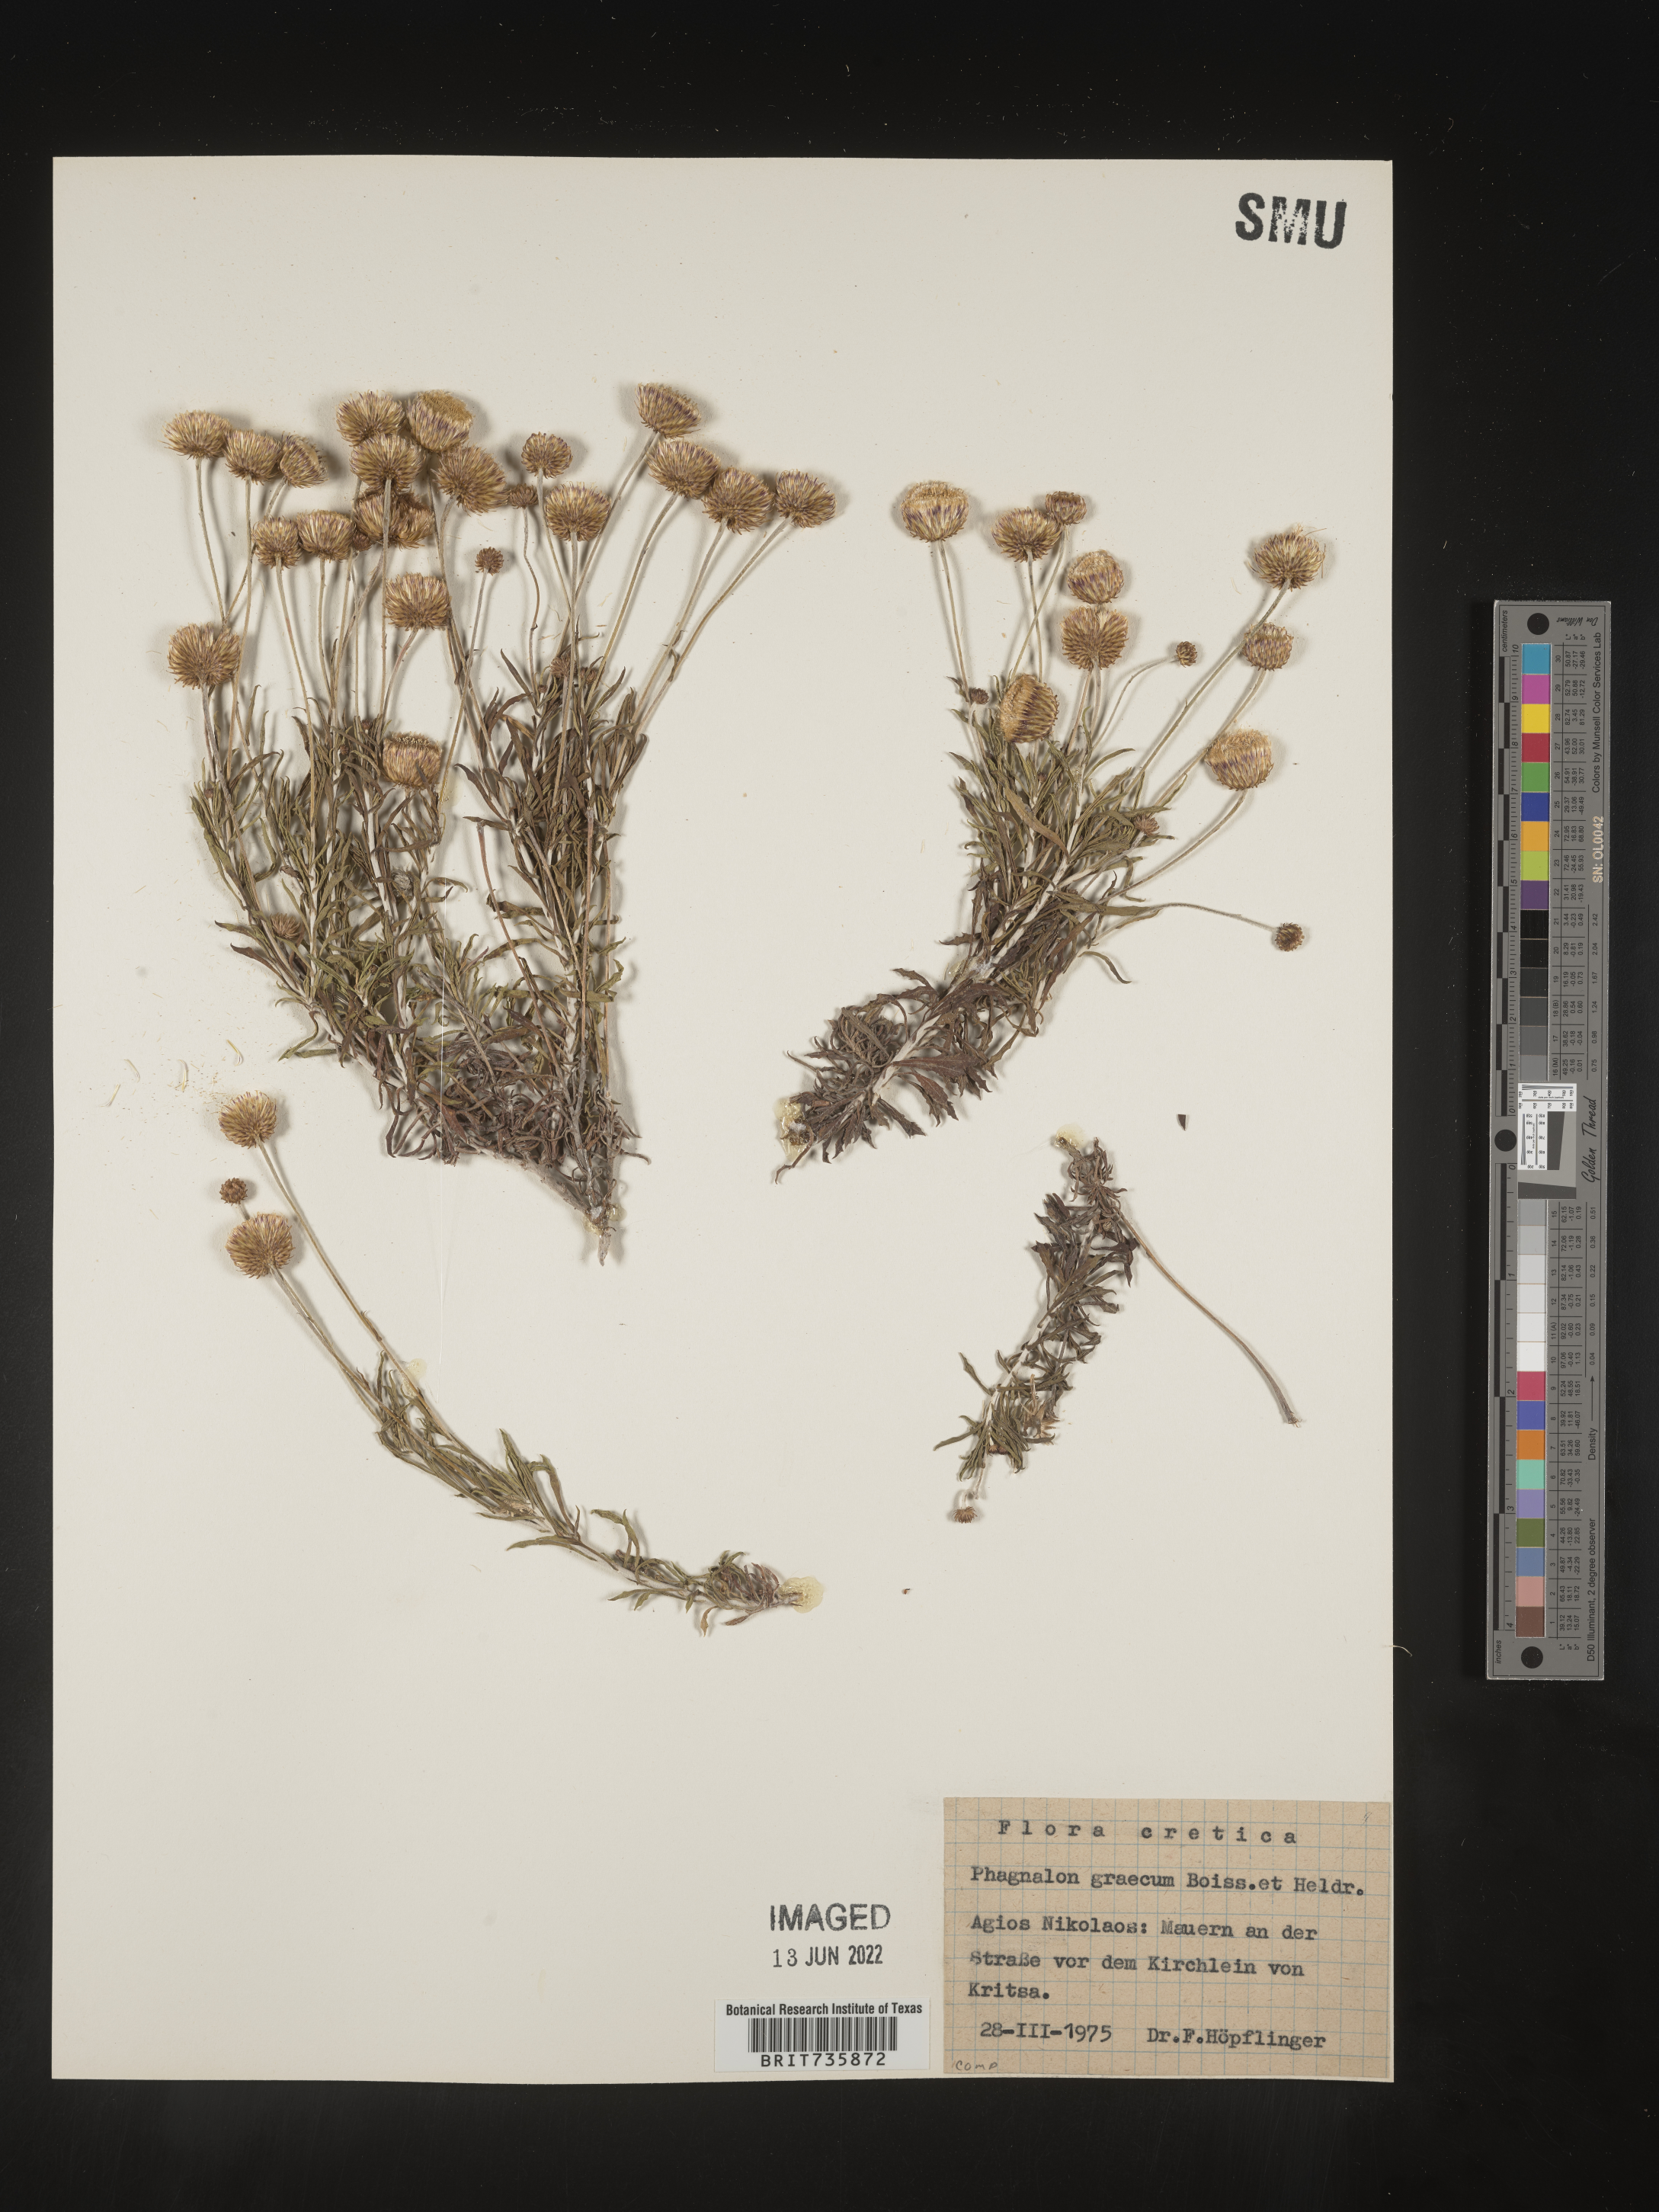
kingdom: Plantae
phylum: Tracheophyta
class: Magnoliopsida
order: Asterales
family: Asteraceae
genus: Phagnalon
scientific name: Phagnalon
